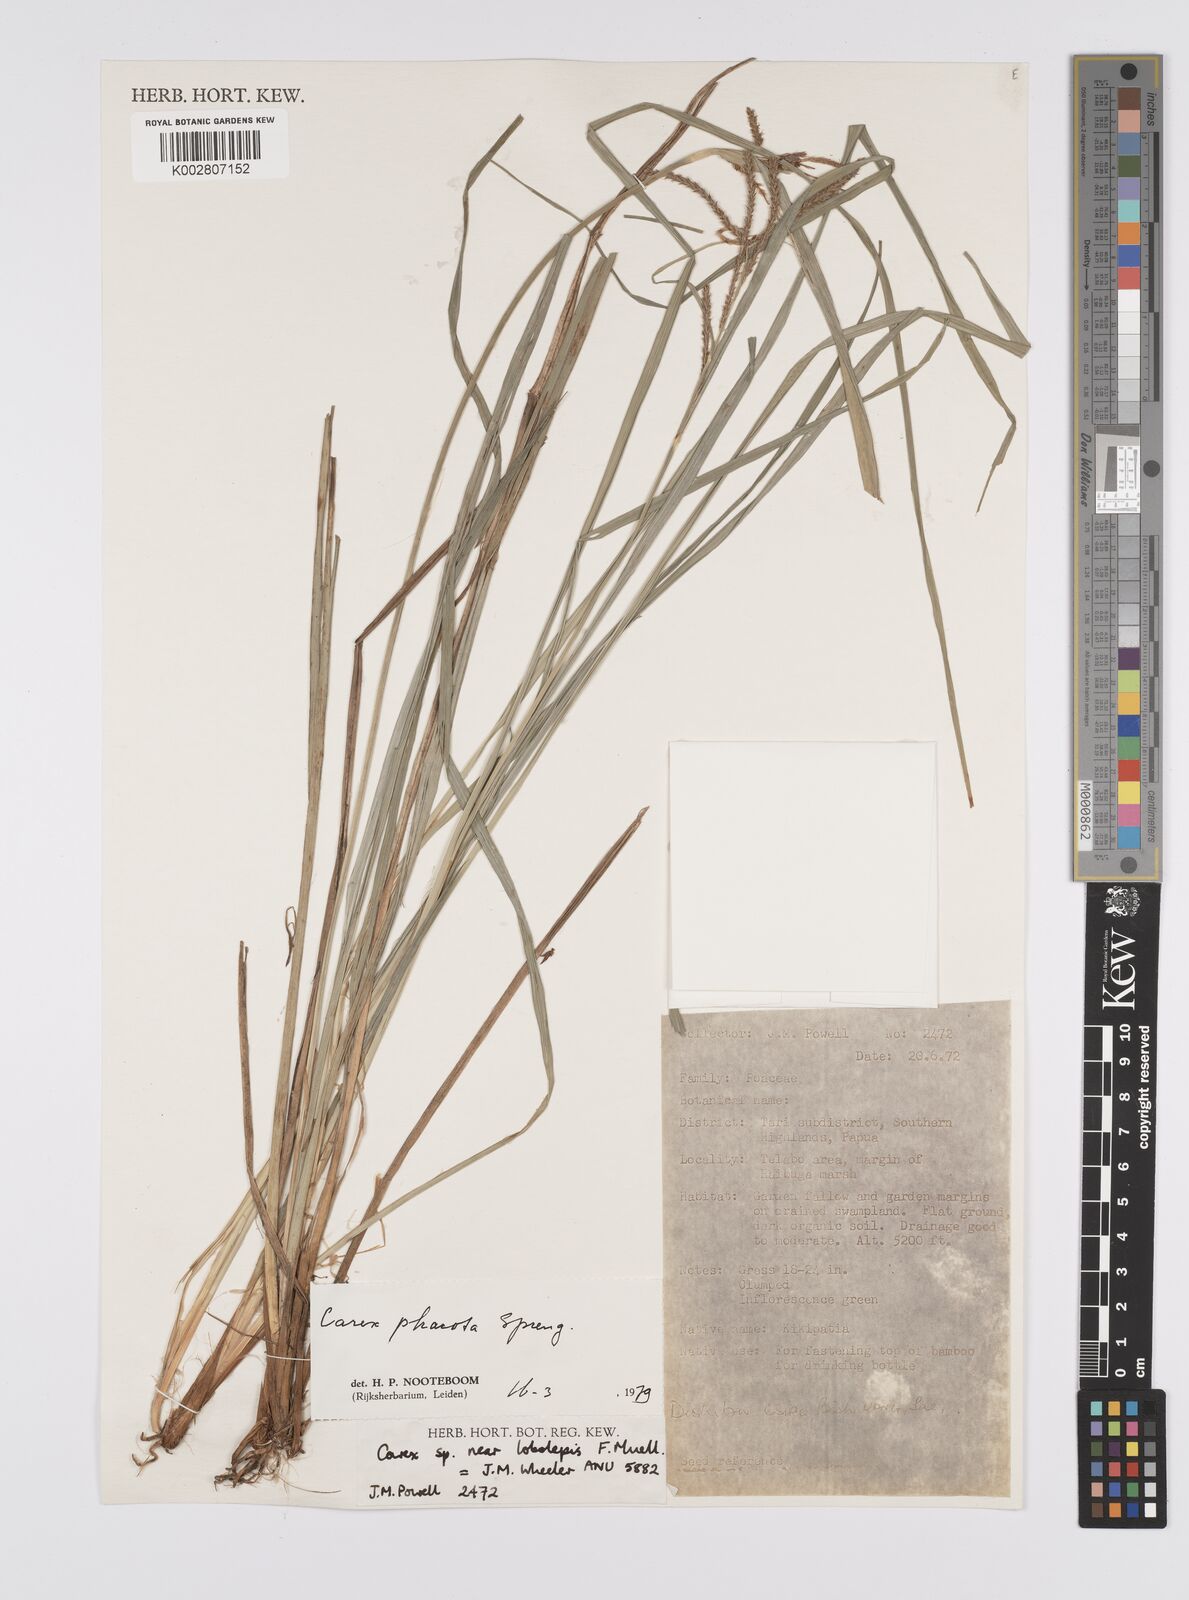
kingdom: Plantae
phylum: Tracheophyta
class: Liliopsida
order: Poales
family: Cyperaceae
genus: Carex
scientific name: Carex phacota
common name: Lakeshore sedge
